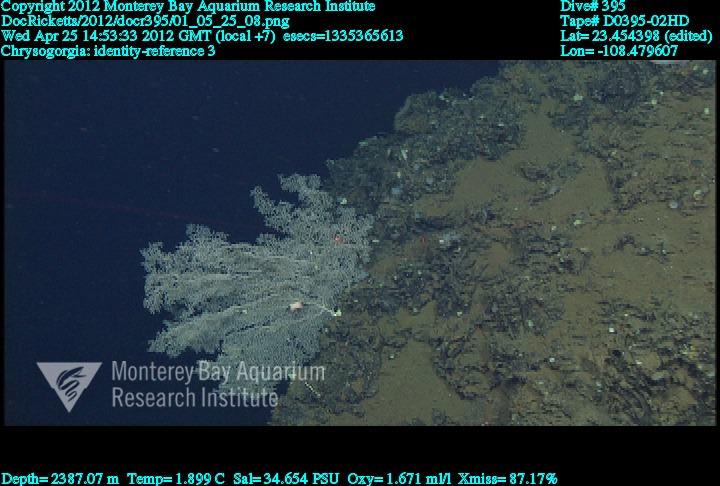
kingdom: Animalia
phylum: Cnidaria
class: Anthozoa
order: Scleralcyonacea
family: Chrysogorgiidae
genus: Chrysogorgia
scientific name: Chrysogorgia
